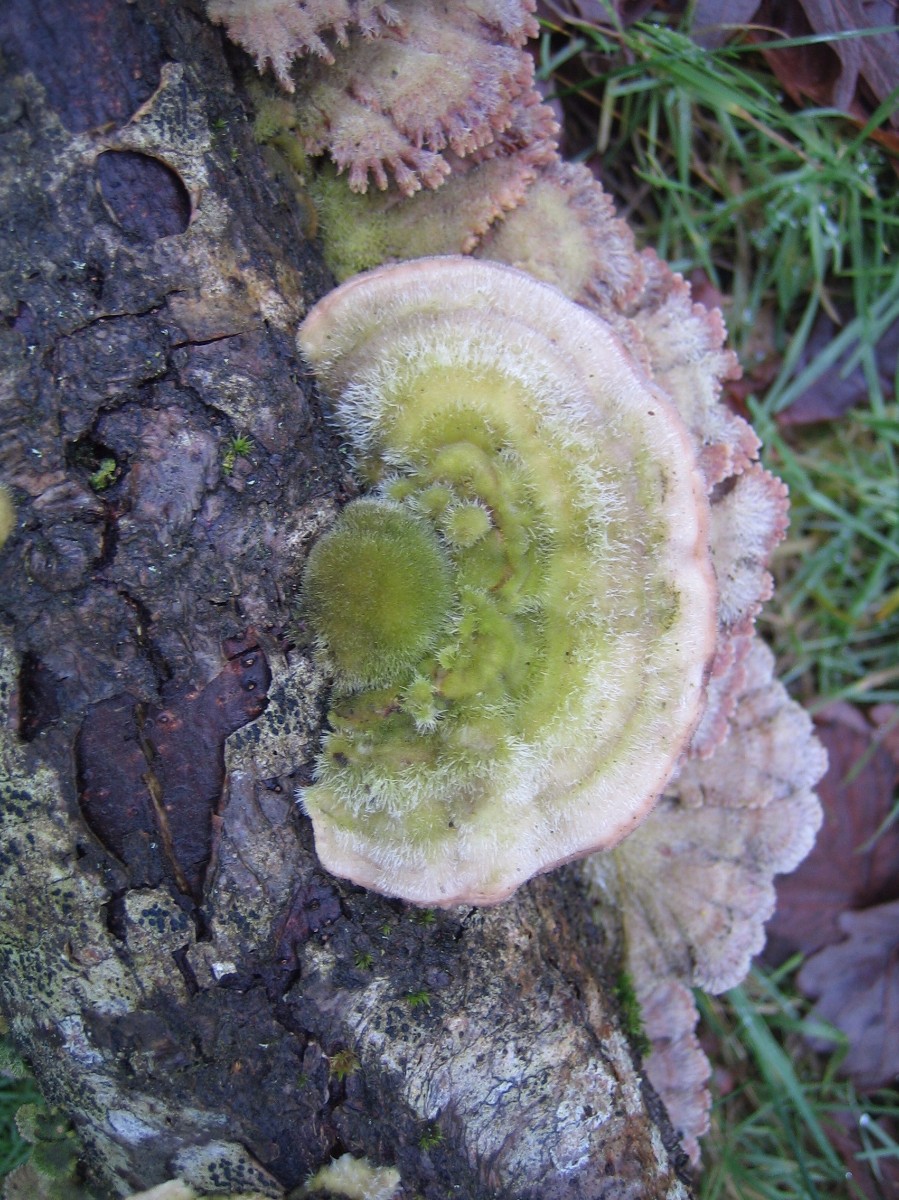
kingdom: Fungi
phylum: Basidiomycota
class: Agaricomycetes
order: Polyporales
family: Polyporaceae
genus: Trametes
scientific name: Trametes hirsuta
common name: håret læderporesvamp
